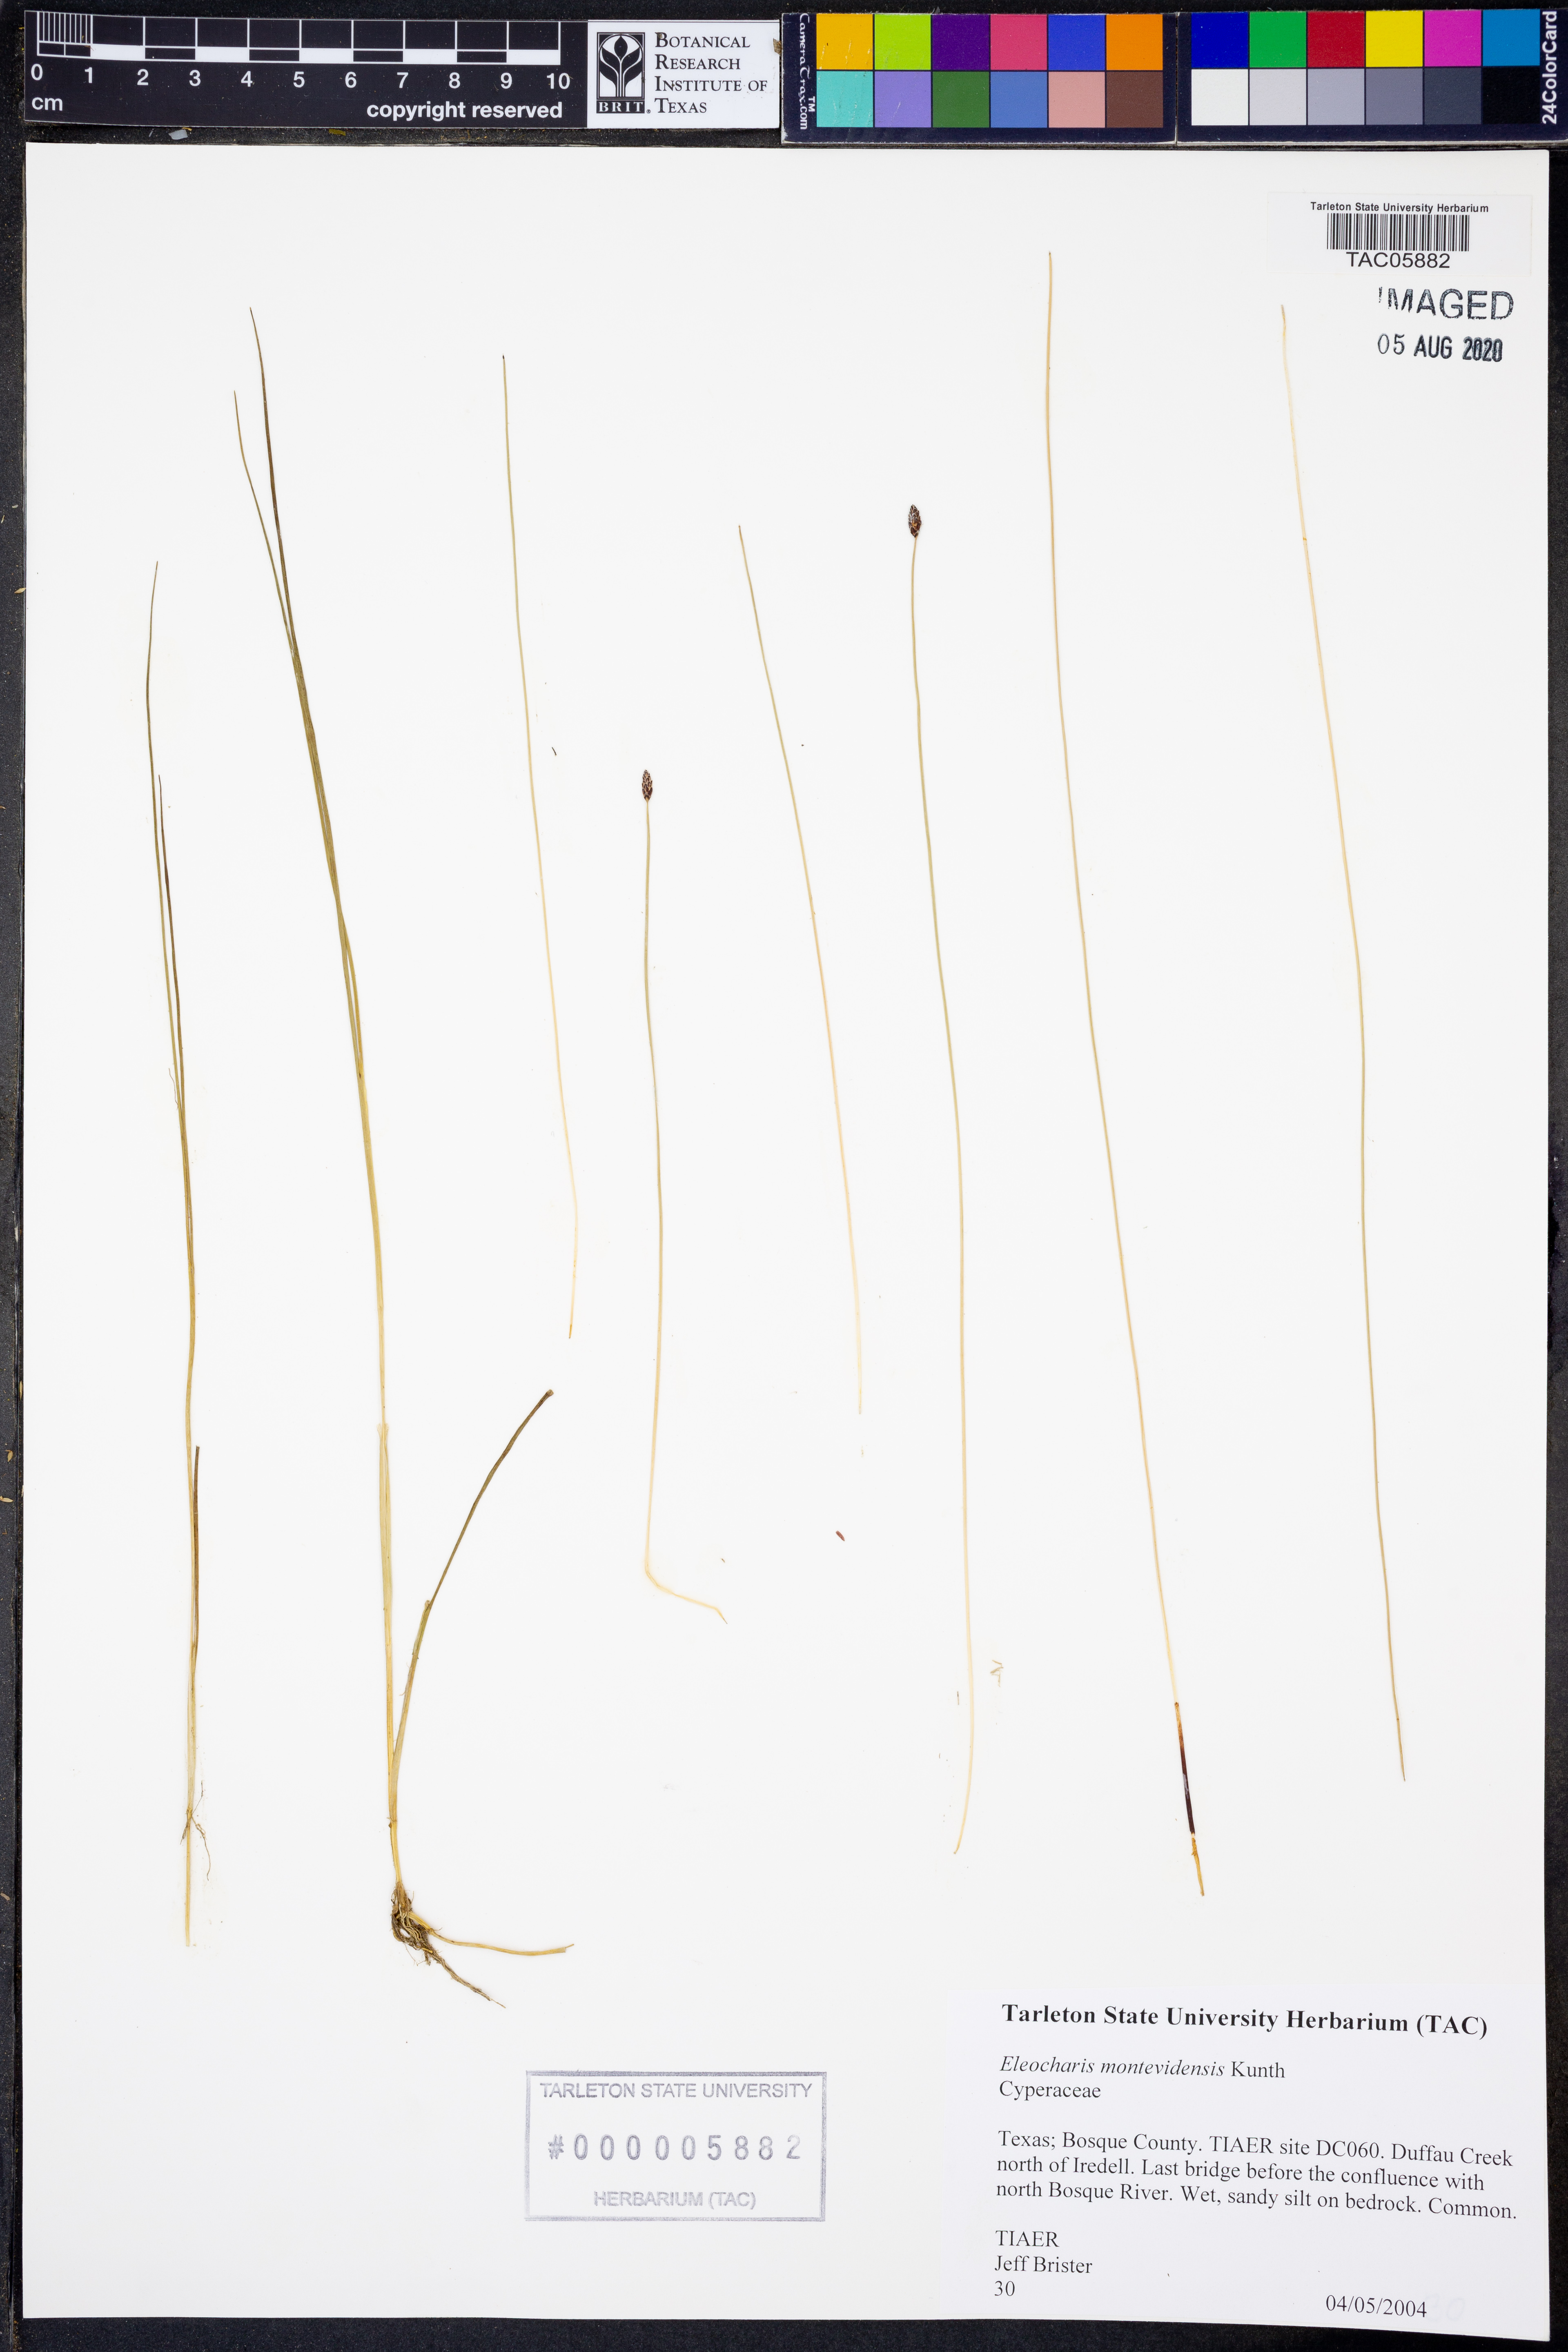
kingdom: Plantae
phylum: Tracheophyta
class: Liliopsida
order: Poales
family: Cyperaceae
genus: Eleocharis
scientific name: Eleocharis montevidensis
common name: Sand spike-rush
